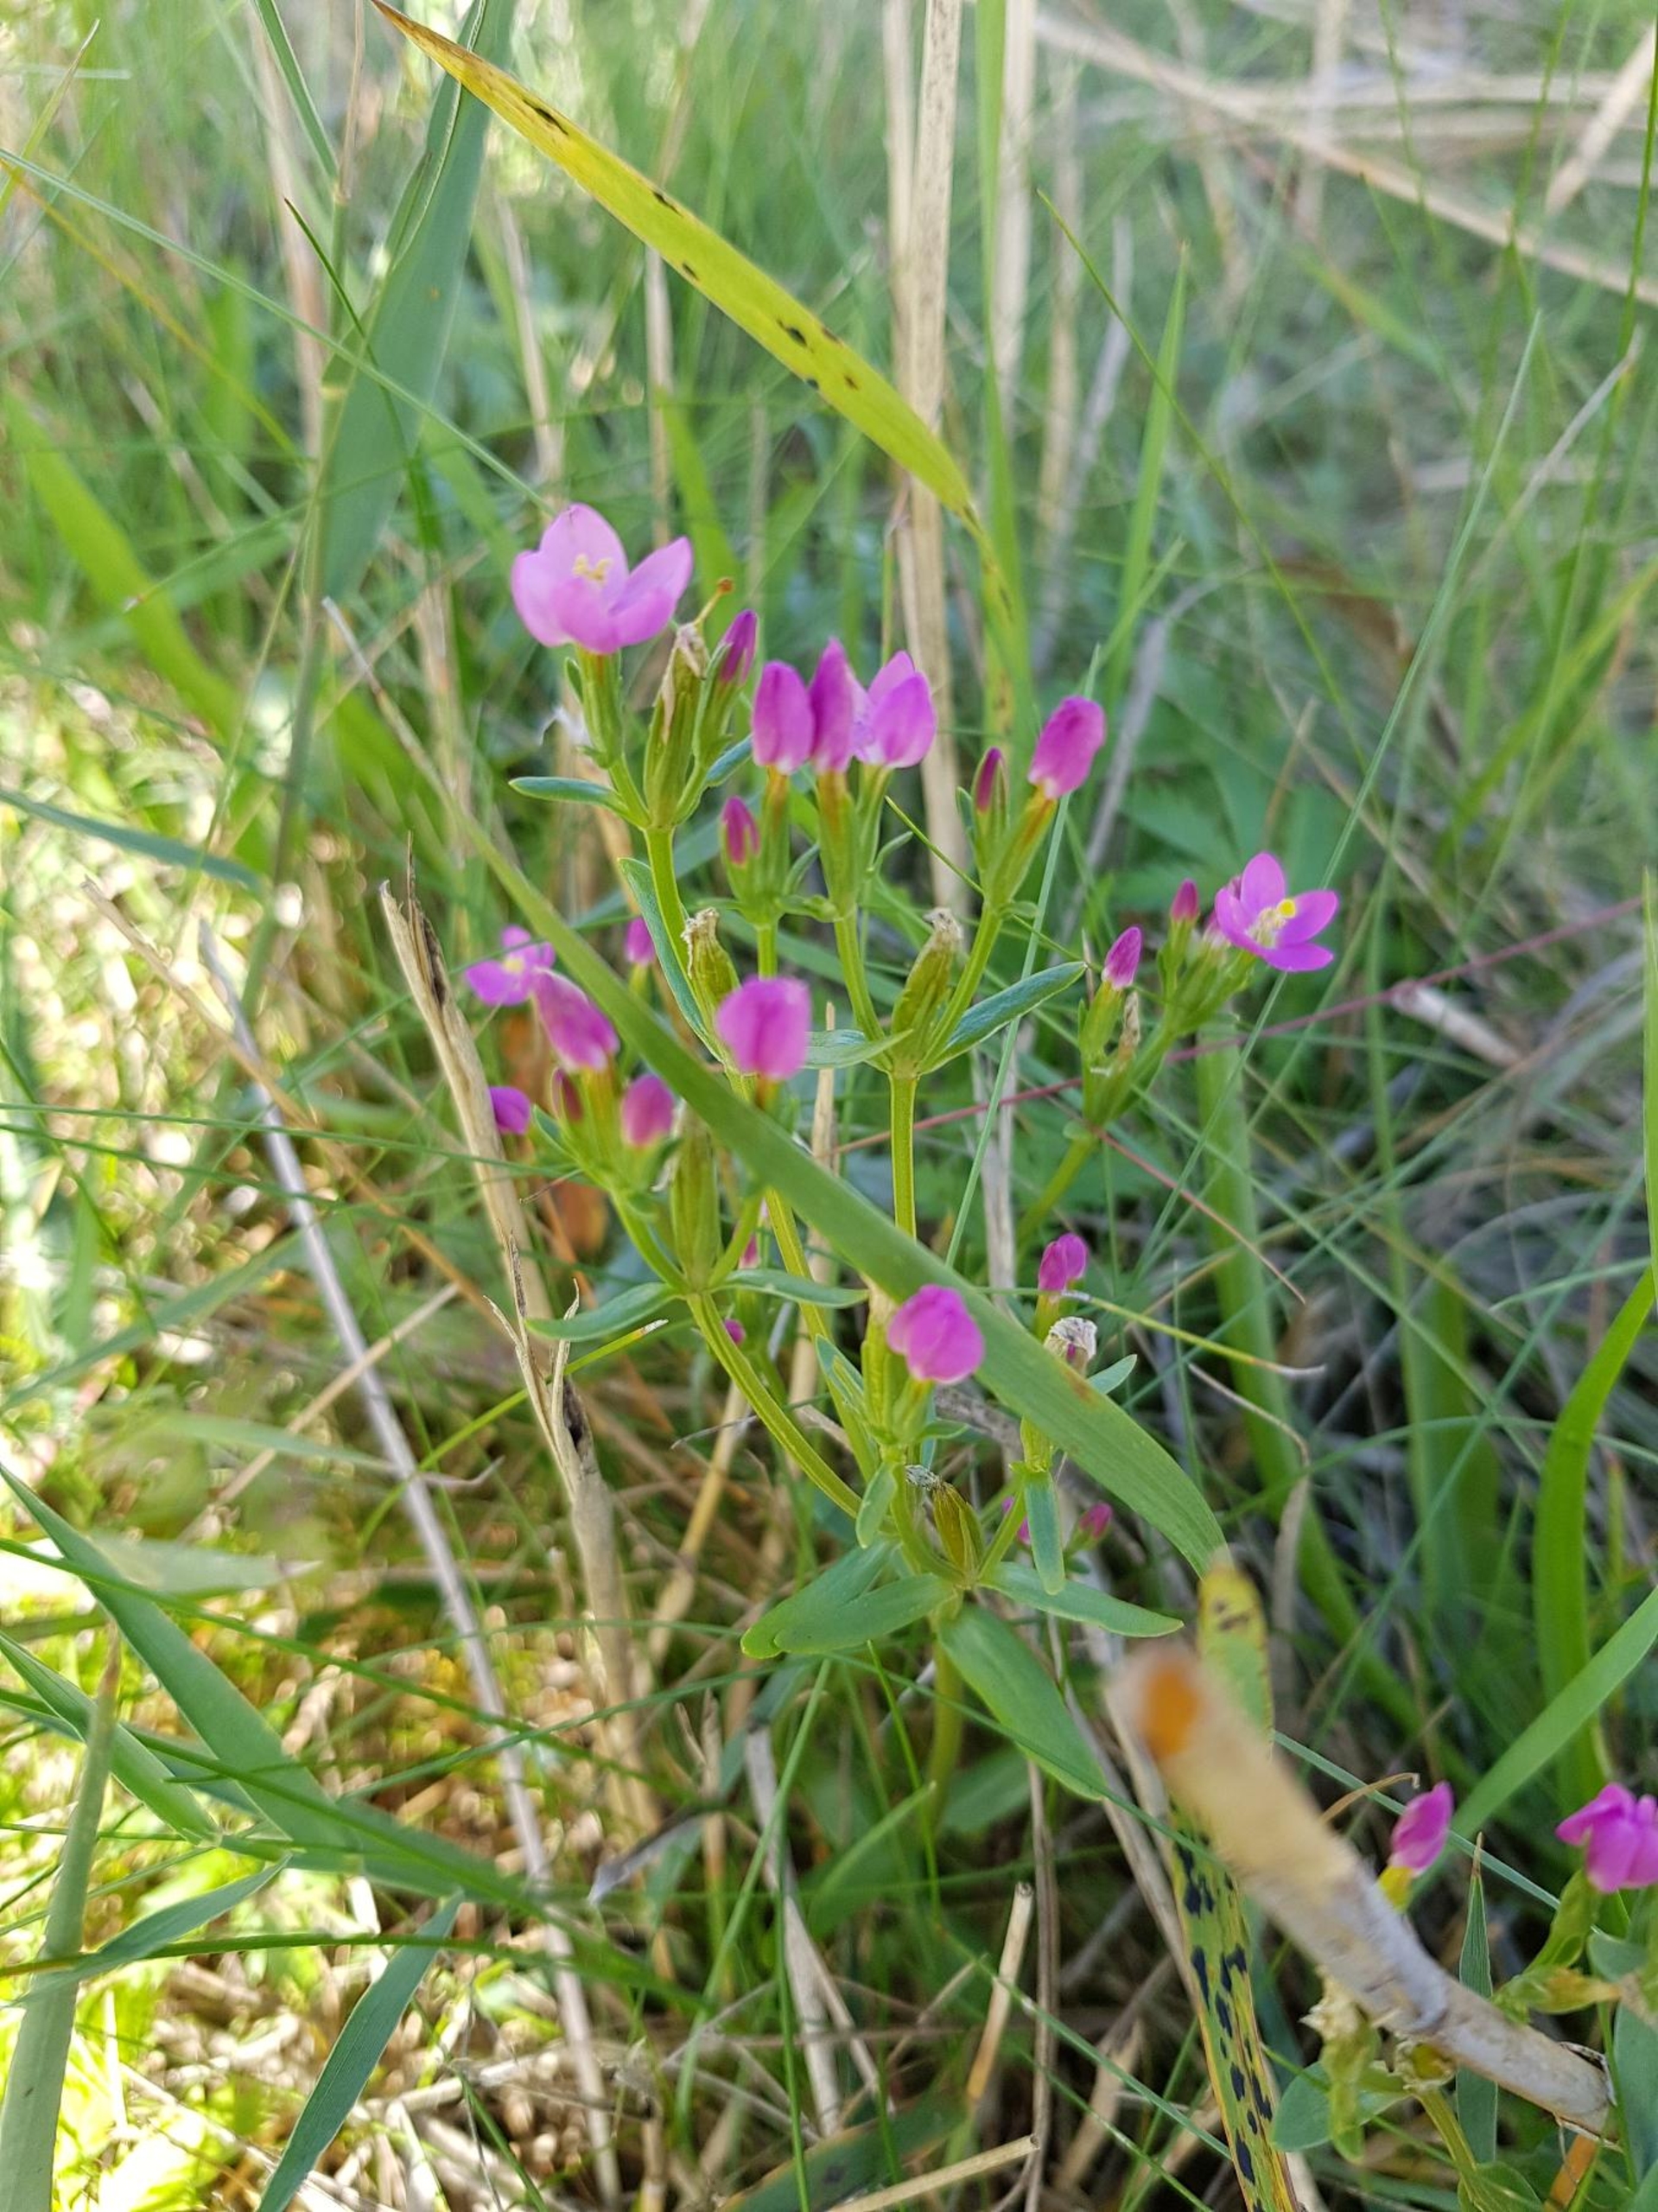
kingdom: Plantae
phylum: Tracheophyta
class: Magnoliopsida
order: Gentianales
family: Gentianaceae
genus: Centaurium
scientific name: Centaurium littorale
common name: Strand-tusindgylden
